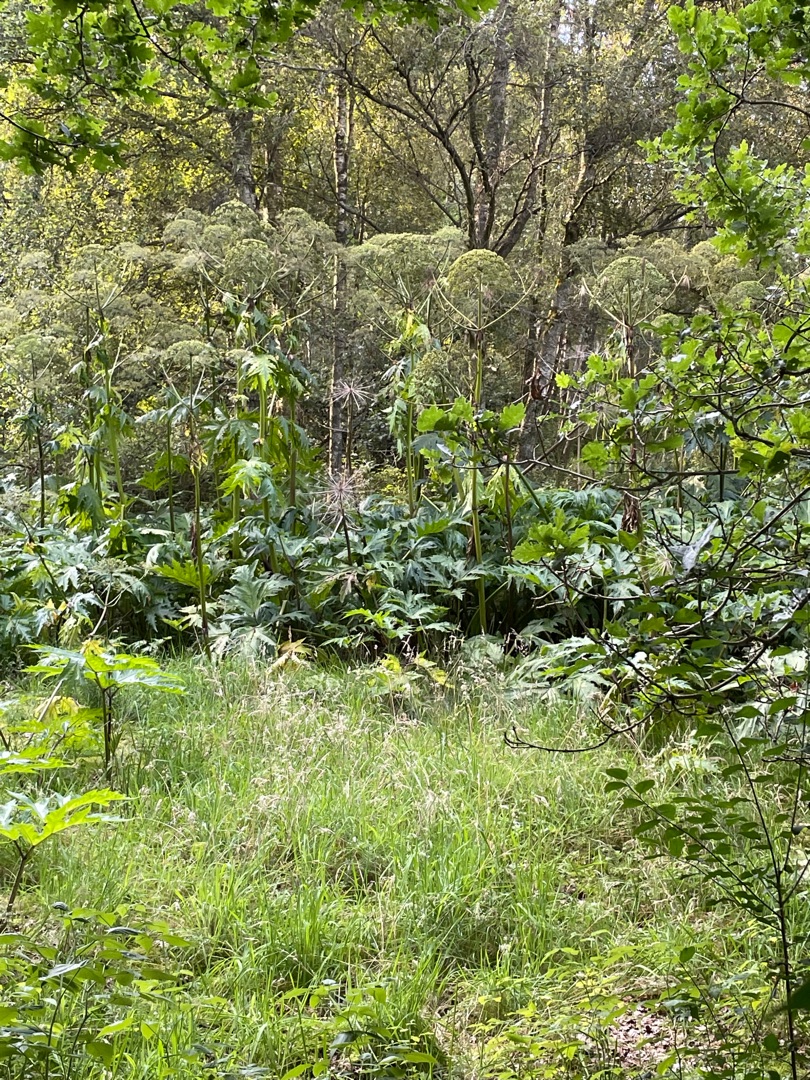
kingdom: Plantae
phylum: Tracheophyta
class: Magnoliopsida
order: Apiales
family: Apiaceae
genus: Heracleum
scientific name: Heracleum mantegazzianum
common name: Kæmpe-bjørneklo
